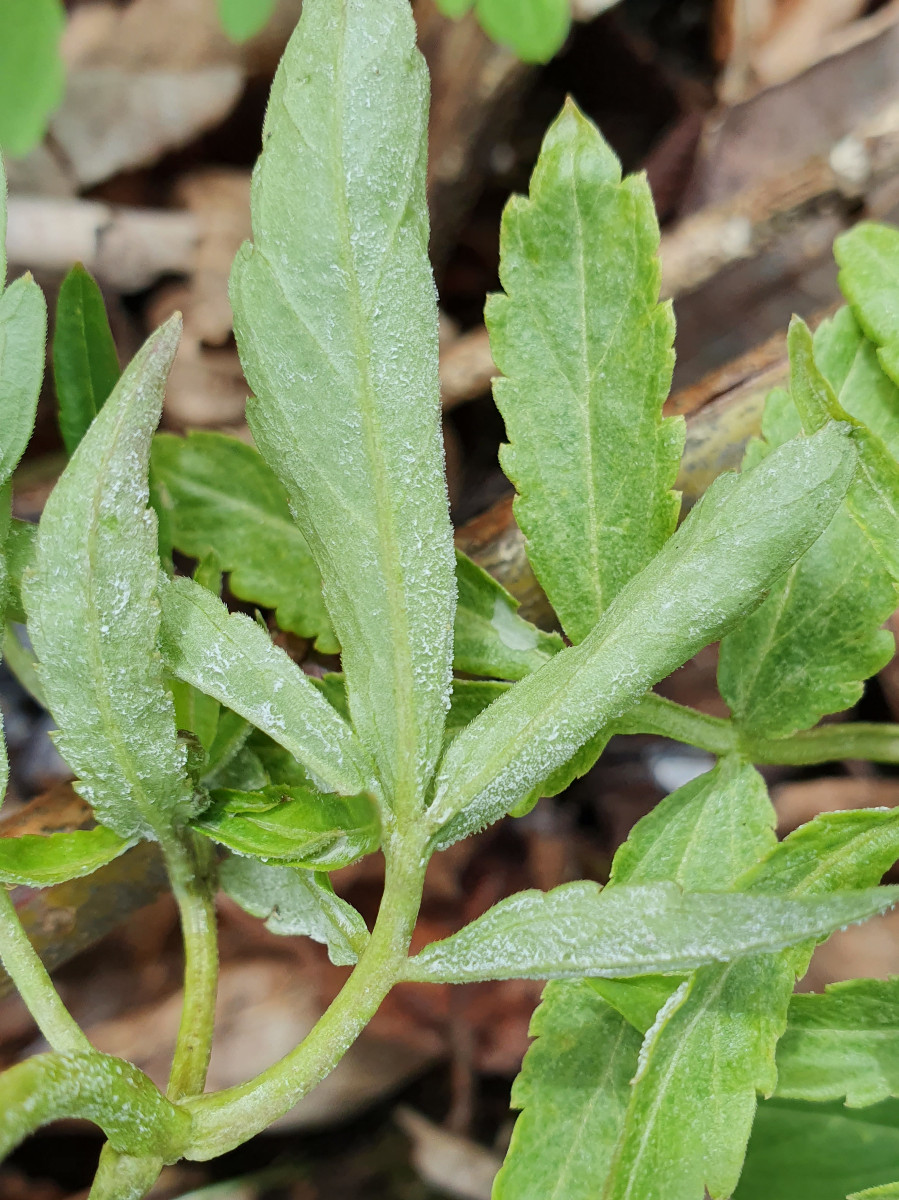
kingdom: Chromista
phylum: Oomycota
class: Peronosporea
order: Peronosporales
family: Peronosporaceae
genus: Hyaloperonospora
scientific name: Hyaloperonospora dentariae
